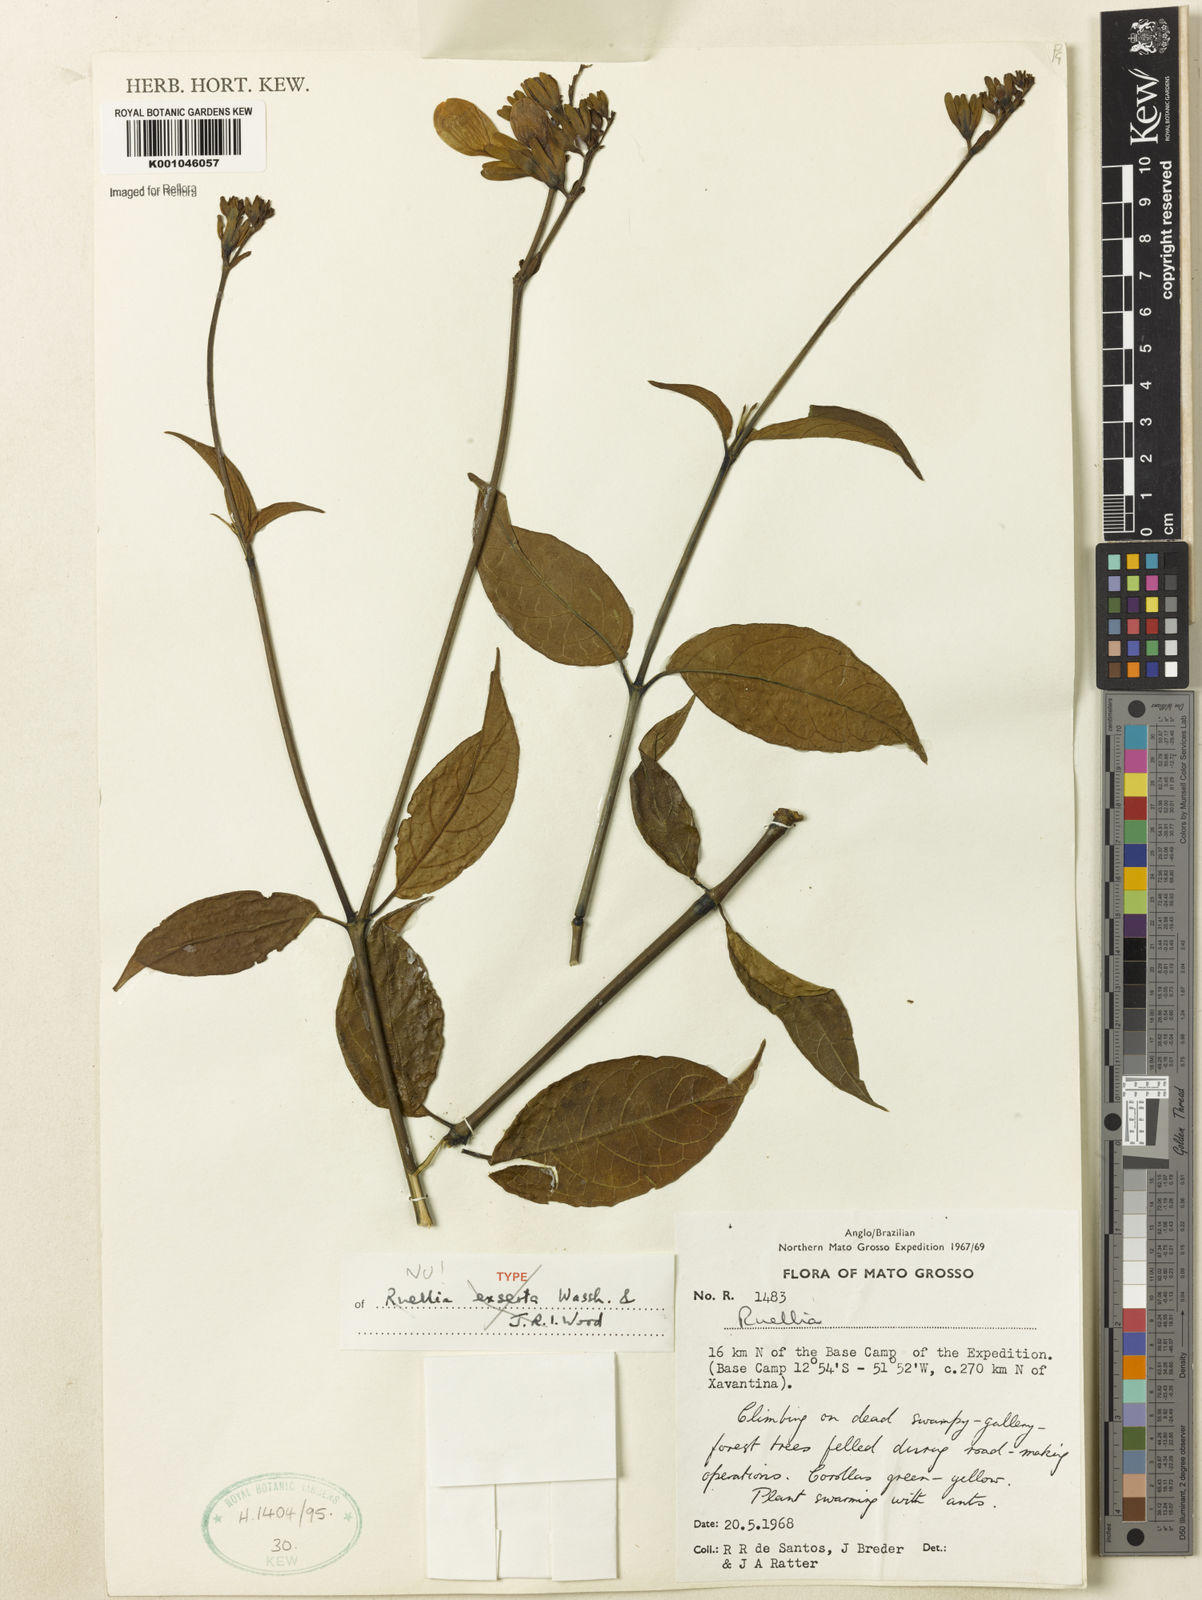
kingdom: Plantae
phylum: Tracheophyta
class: Magnoliopsida
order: Lamiales
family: Acanthaceae
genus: Ruellia
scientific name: Ruellia exserta
